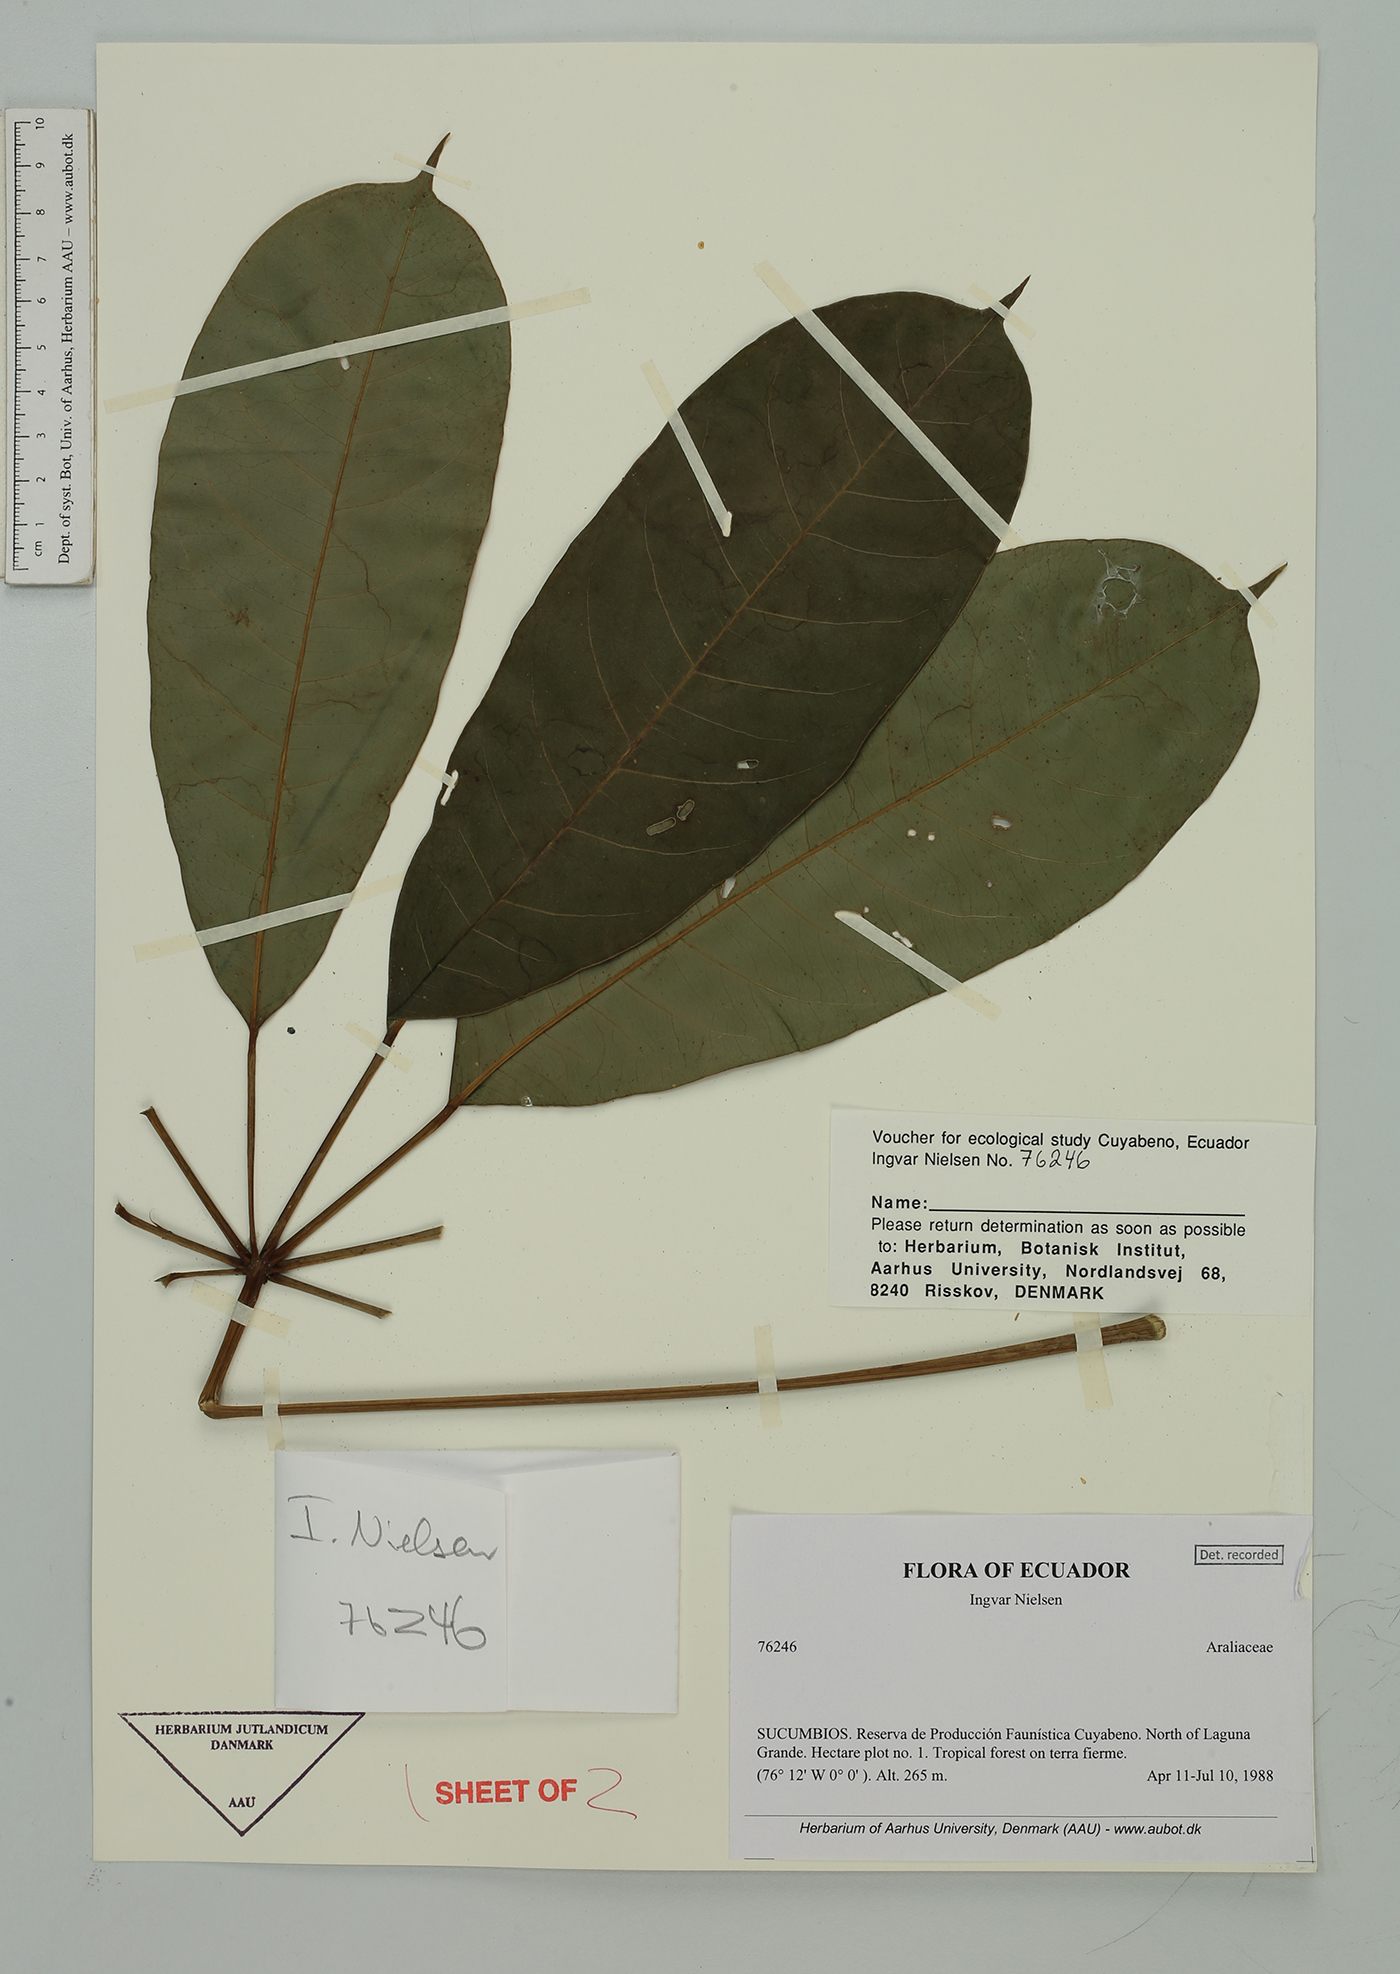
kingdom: Plantae
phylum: Tracheophyta
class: Magnoliopsida
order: Apiales
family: Araliaceae
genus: Sciodaphyllum
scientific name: Sciodaphyllum
